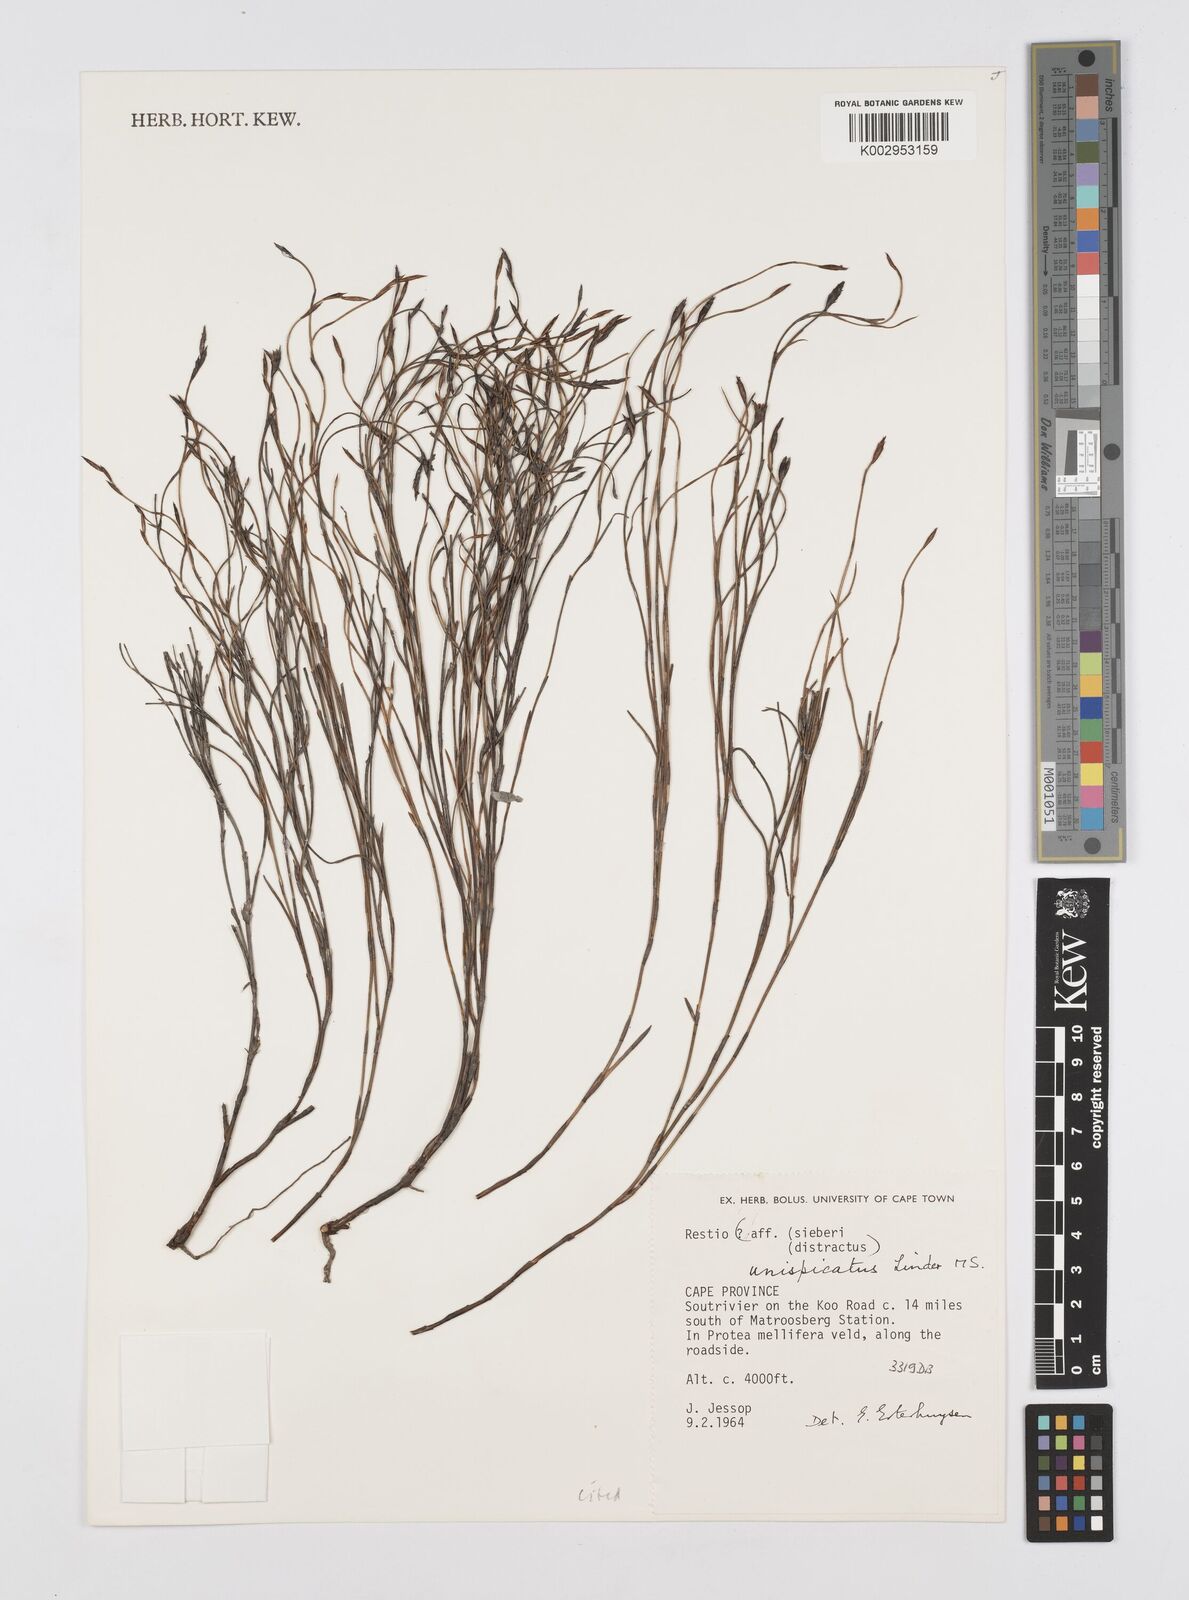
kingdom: Plantae
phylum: Tracheophyta
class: Liliopsida
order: Poales
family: Restionaceae
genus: Restio
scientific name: Restio unispicatus
